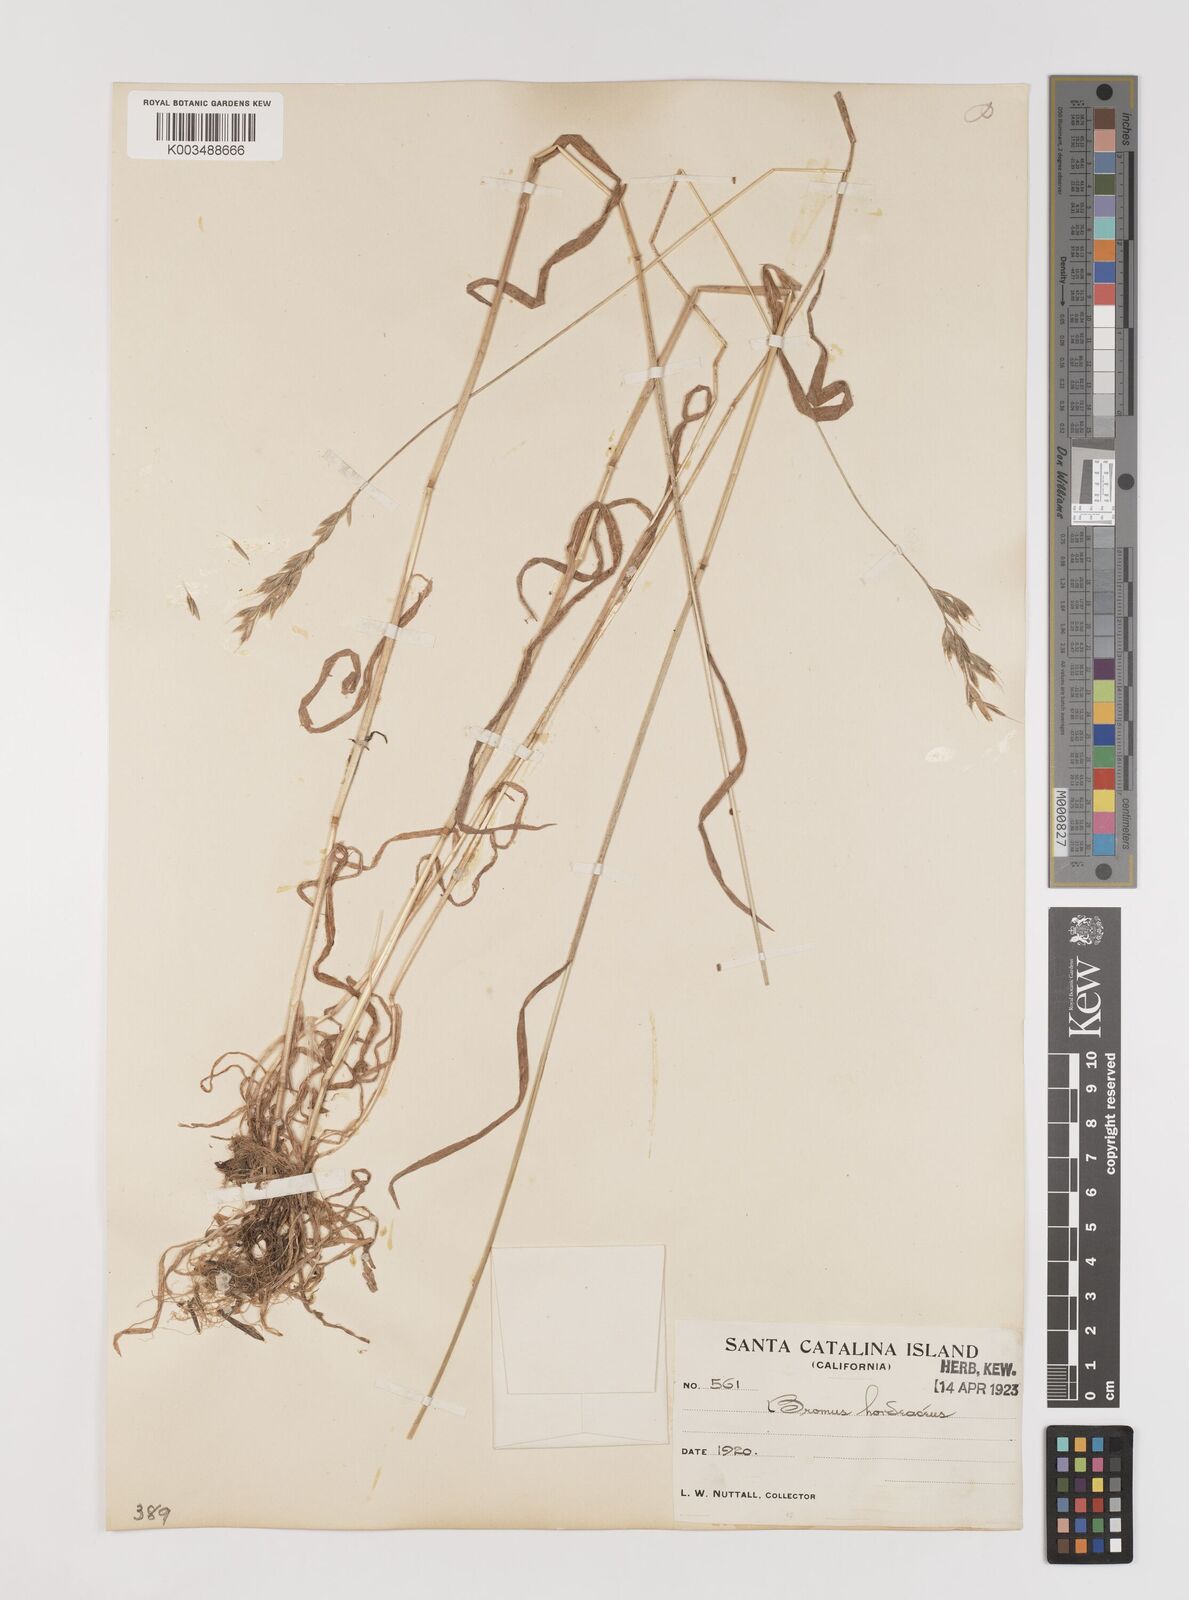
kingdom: Plantae
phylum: Tracheophyta
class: Liliopsida
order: Poales
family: Poaceae
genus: Bromus
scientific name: Bromus hordeaceus
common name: Soft brome
